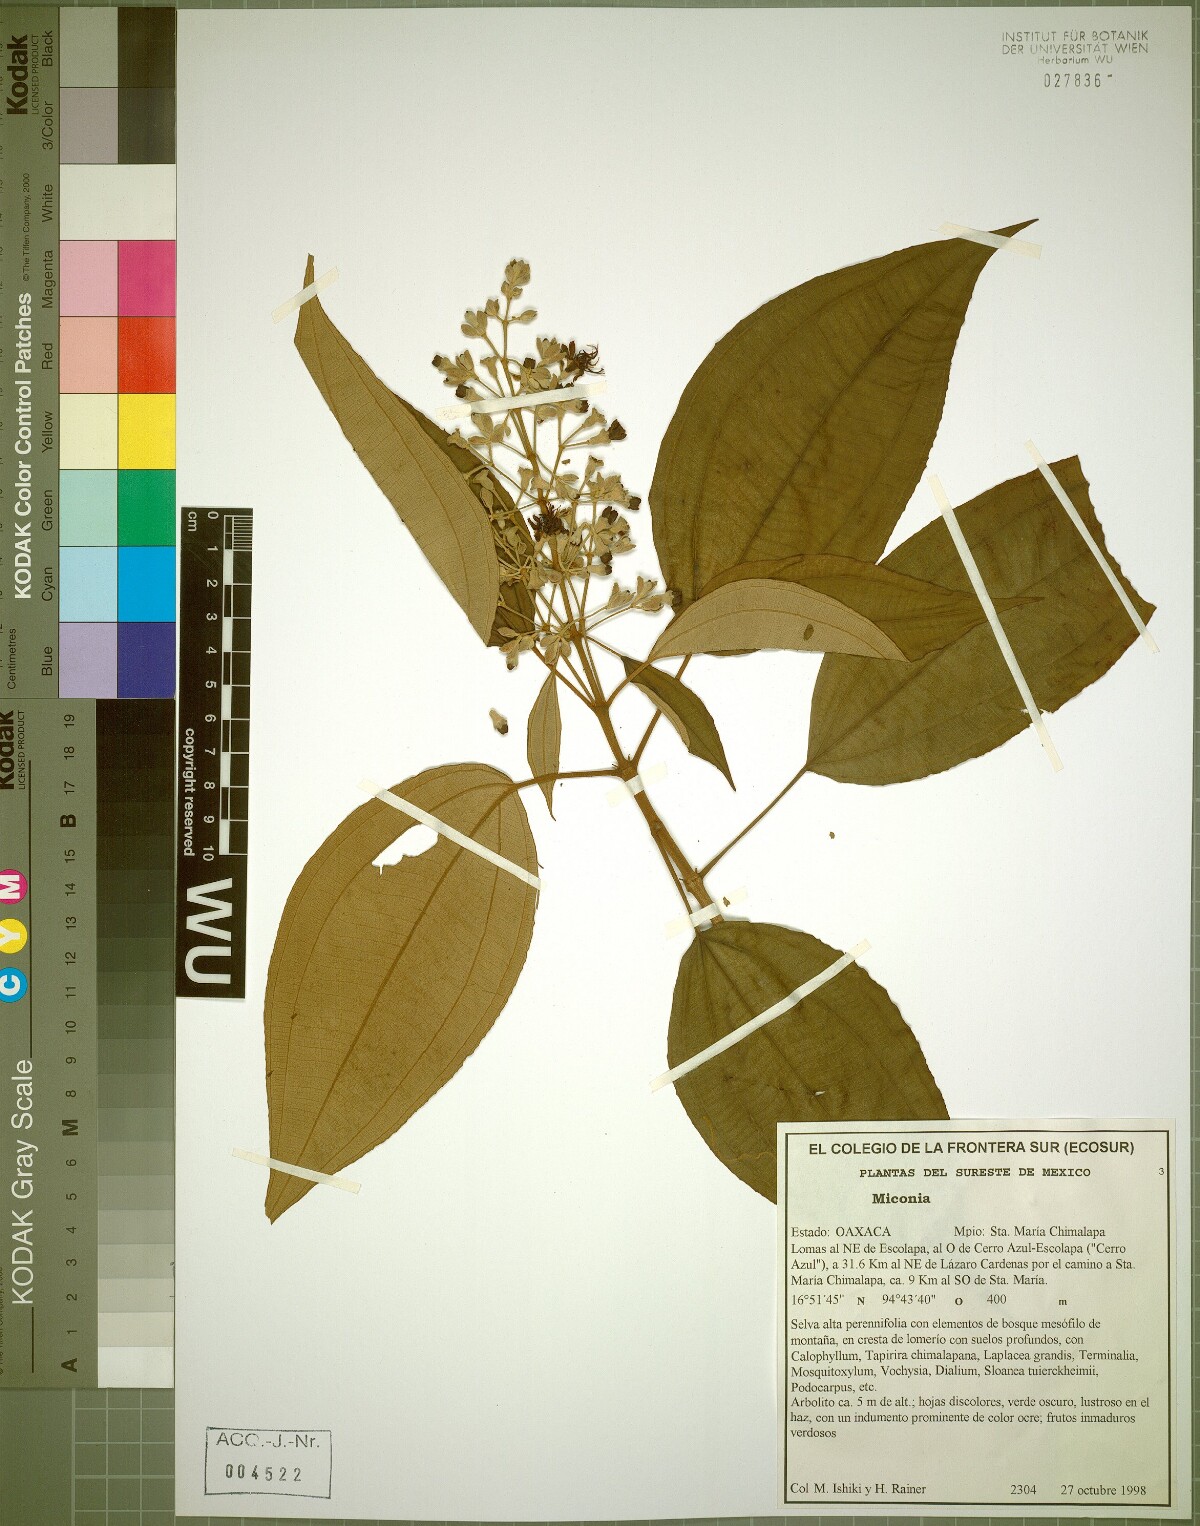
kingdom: Plantae
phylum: Tracheophyta
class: Magnoliopsida
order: Myrtales
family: Melastomataceae
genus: Miconia
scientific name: Miconia radula
